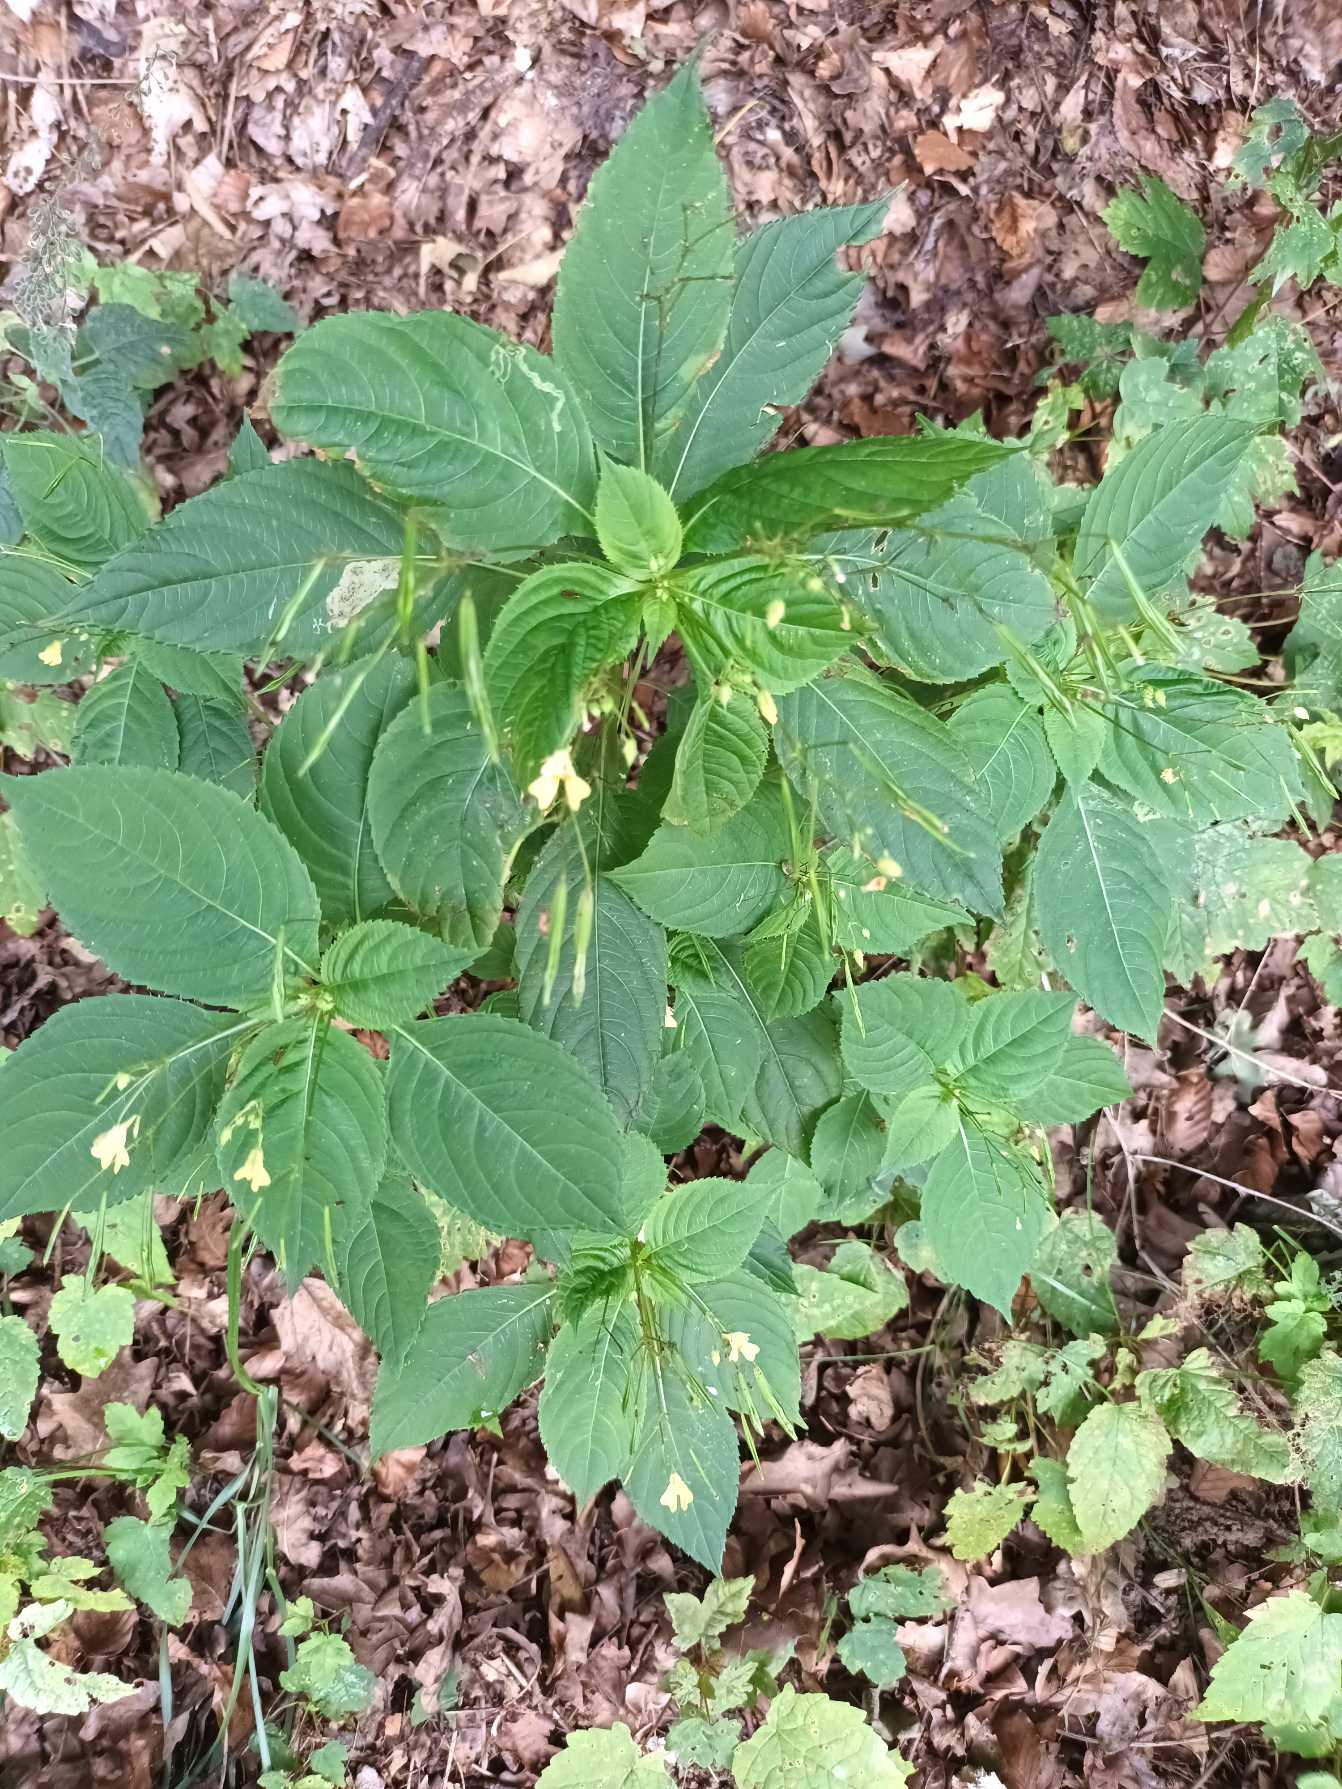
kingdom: Plantae
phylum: Tracheophyta
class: Magnoliopsida
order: Ericales
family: Balsaminaceae
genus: Impatiens
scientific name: Impatiens parviflora
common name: Småblomstret balsamin
